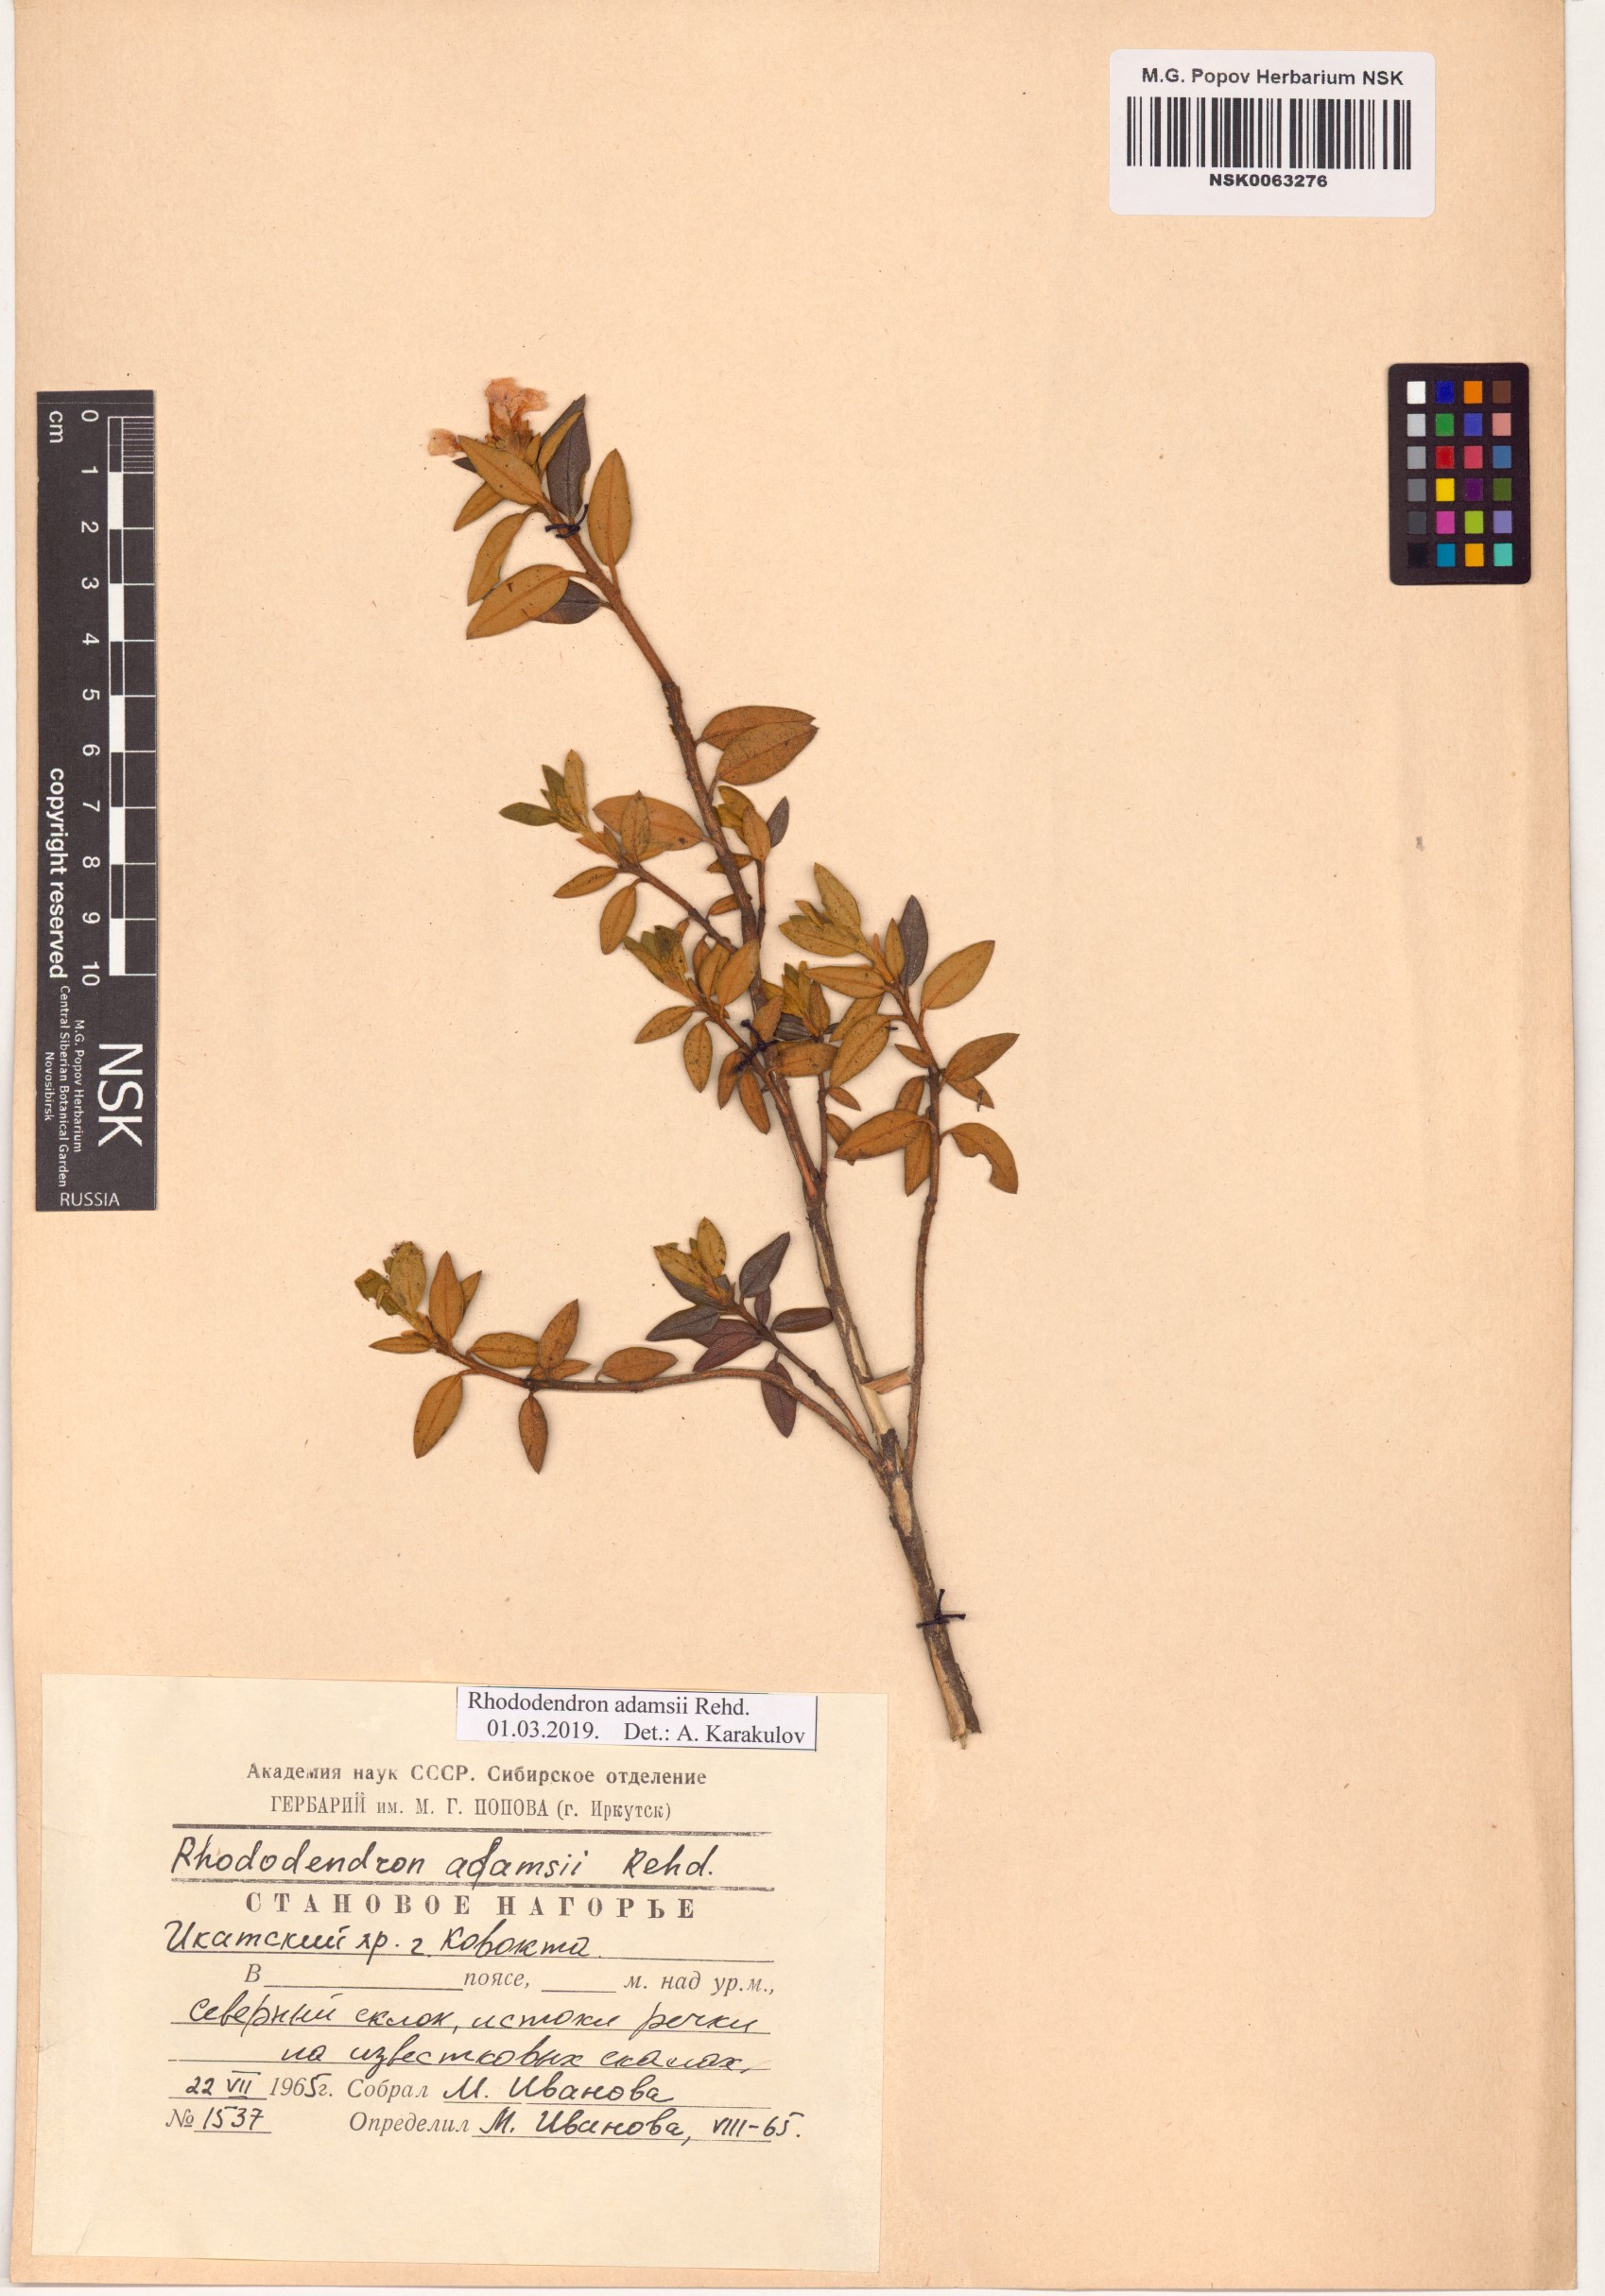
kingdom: Plantae
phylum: Tracheophyta
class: Magnoliopsida
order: Ericales
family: Ericaceae
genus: Rhododendron
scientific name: Rhododendron adamsii
